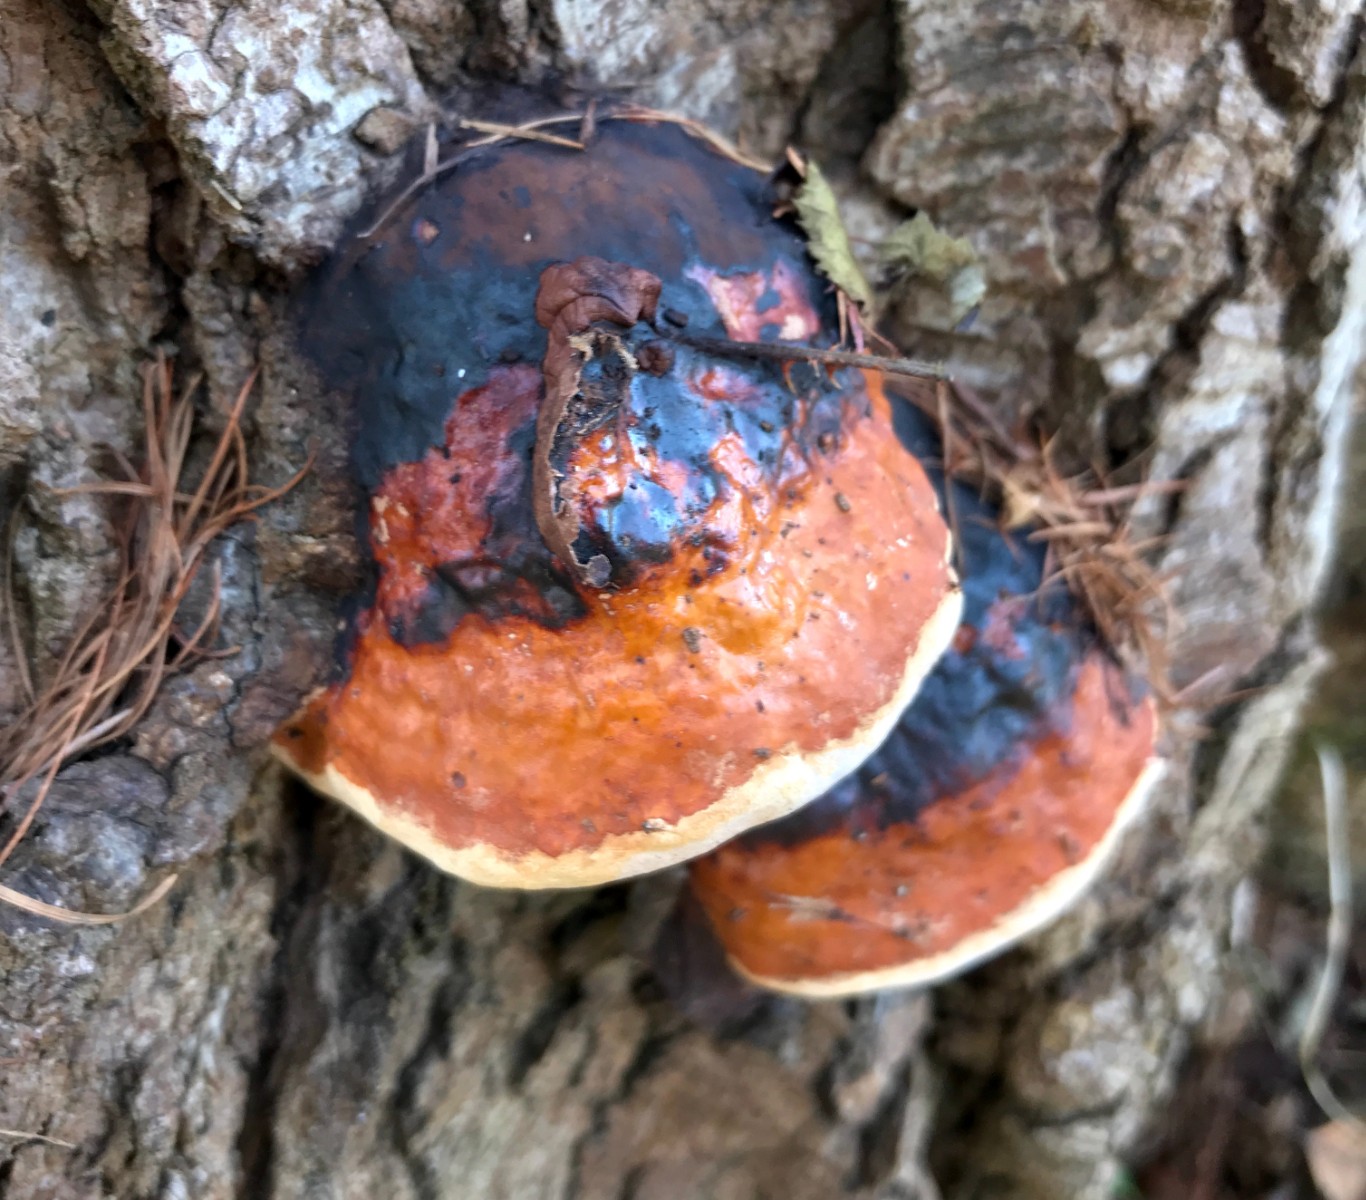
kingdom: Fungi
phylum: Basidiomycota
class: Agaricomycetes
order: Polyporales
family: Fomitopsidaceae
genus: Fomitopsis
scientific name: Fomitopsis pinicola
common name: randbæltet hovporesvamp
